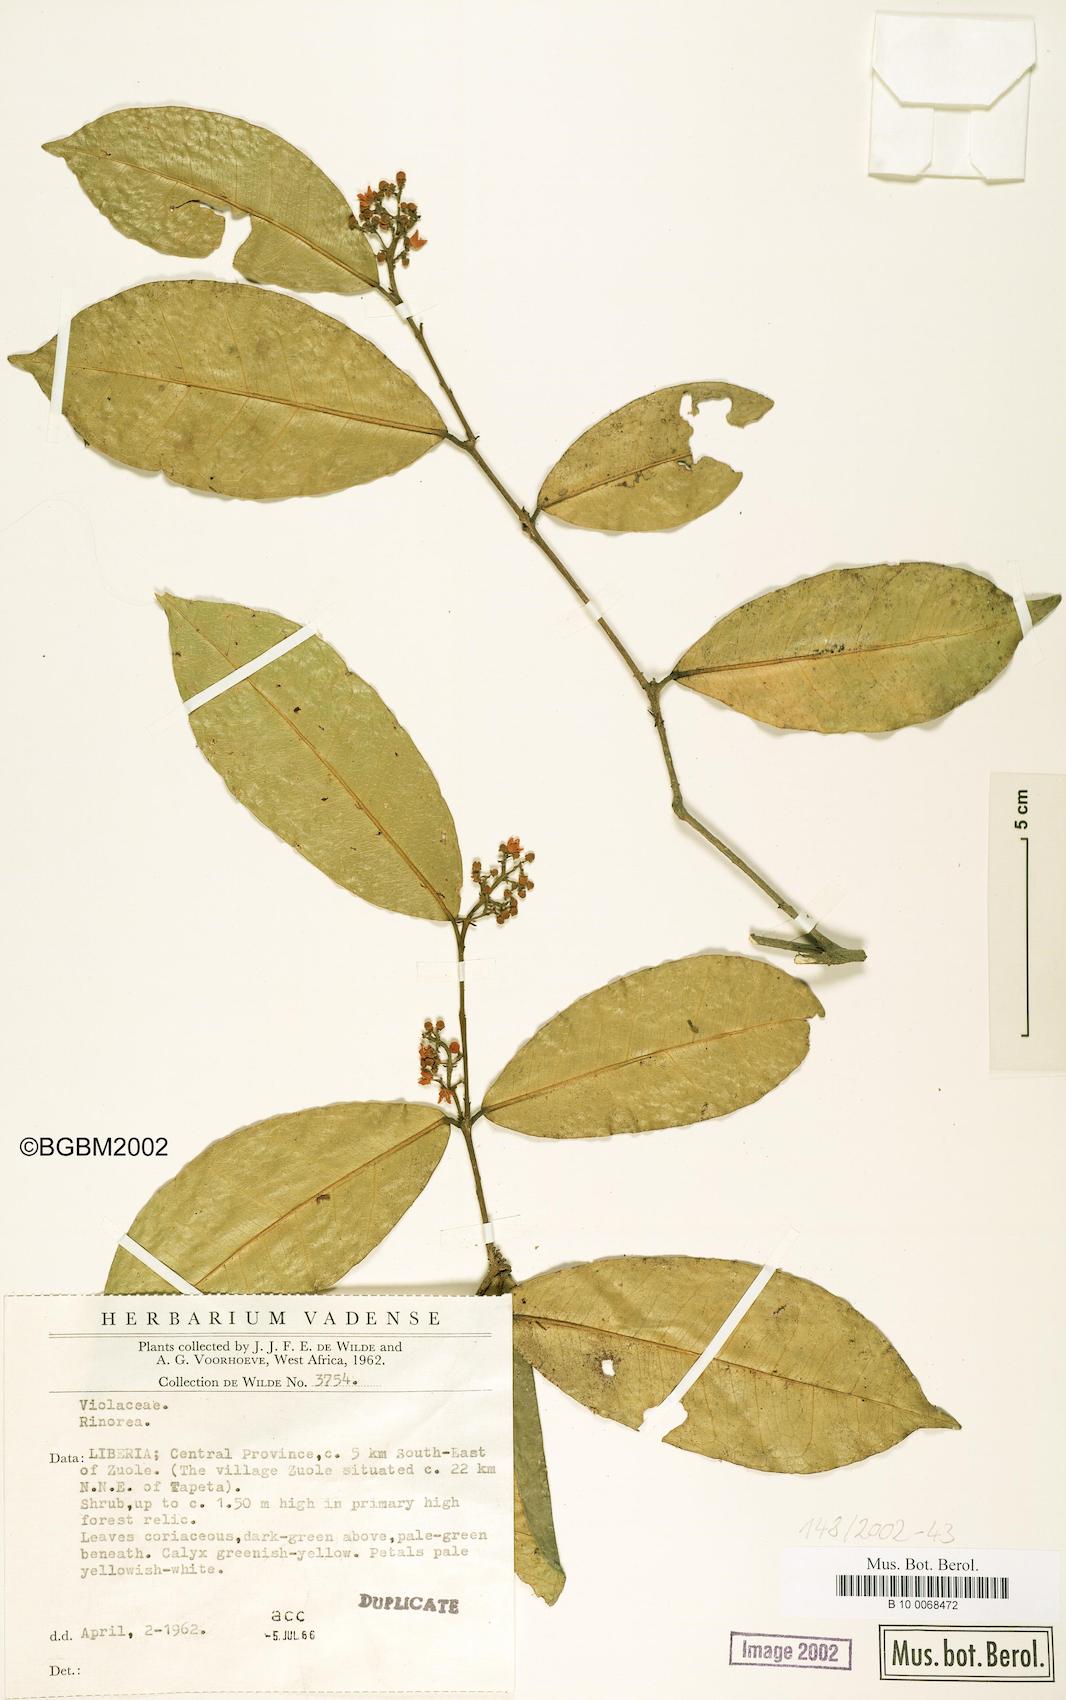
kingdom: Plantae
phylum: Tracheophyta
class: Magnoliopsida
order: Malpighiales
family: Violaceae
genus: Rinorea
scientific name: Rinorea
